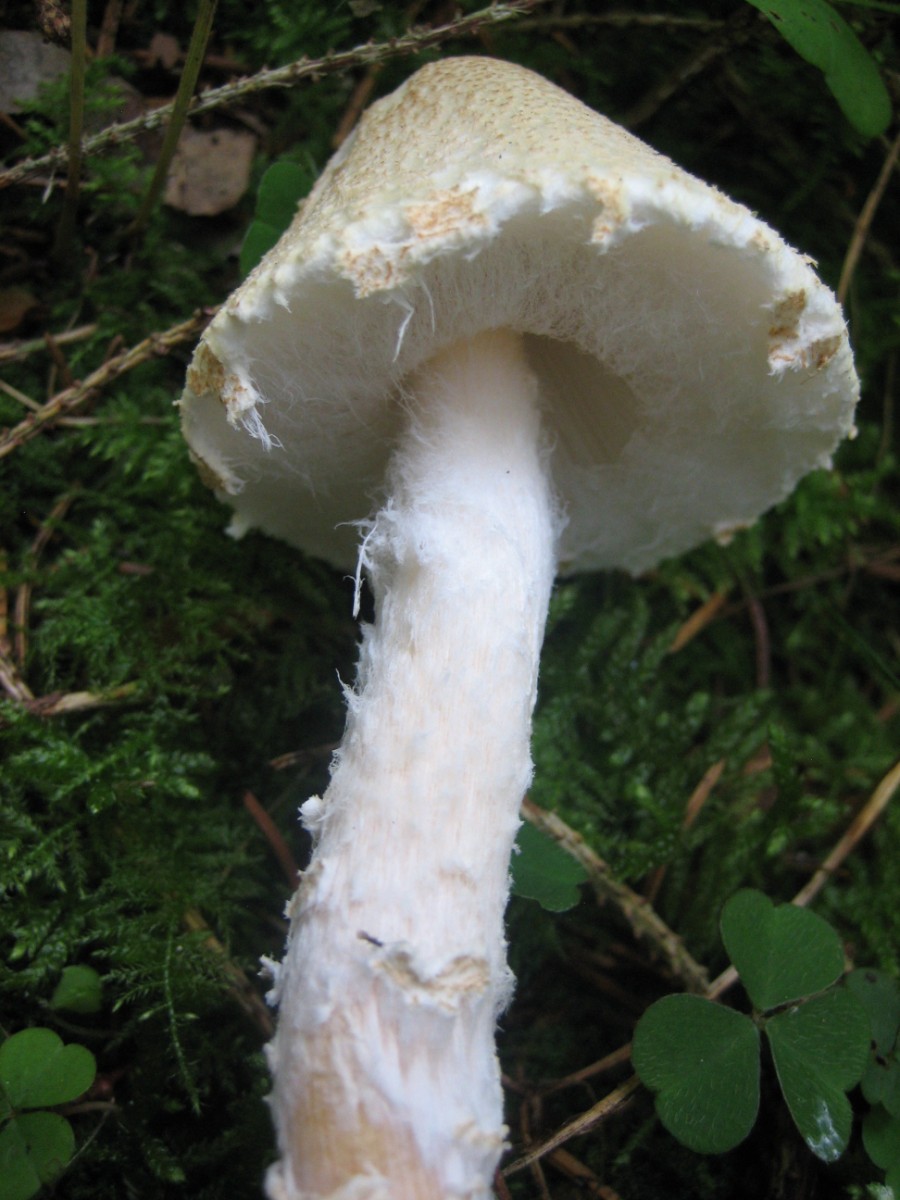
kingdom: Fungi
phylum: Basidiomycota
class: Agaricomycetes
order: Agaricales
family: Agaricaceae
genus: Lepiota
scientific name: Lepiota clypeolaria
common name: flosset parasolhat
